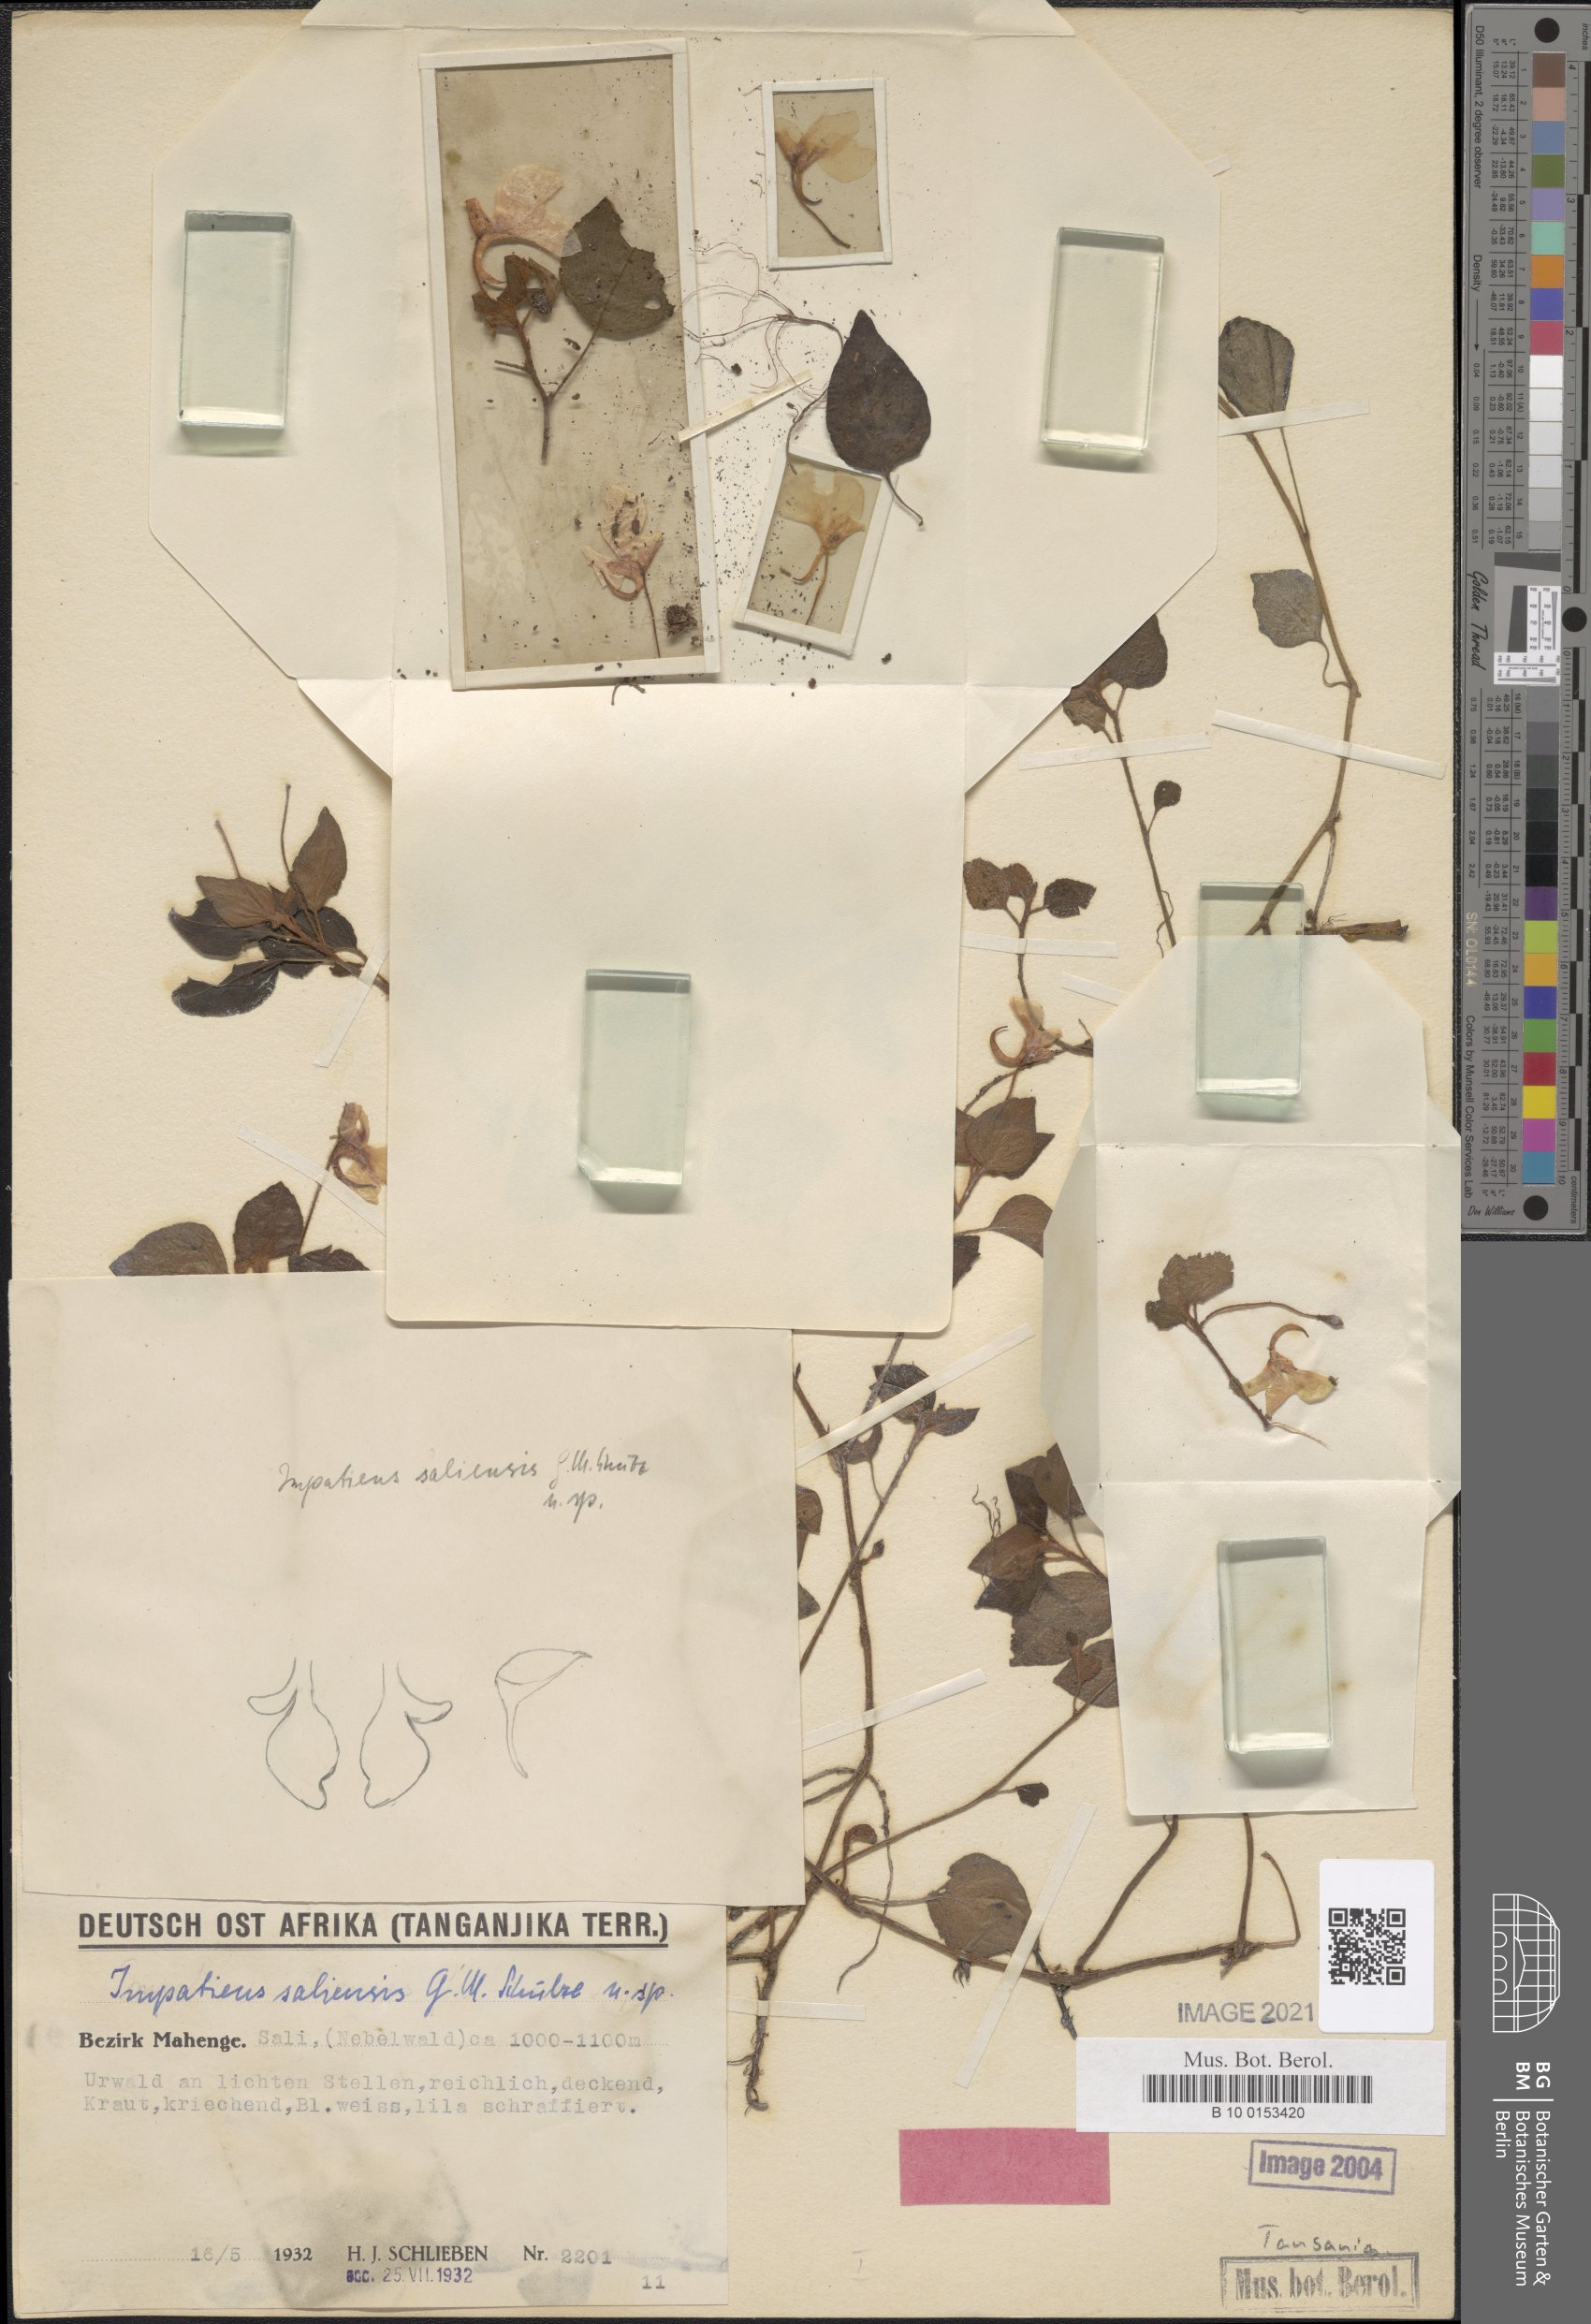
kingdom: Plantae
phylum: Tracheophyta
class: Magnoliopsida
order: Ericales
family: Balsaminaceae
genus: Impatiens
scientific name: Impatiens saliensis
